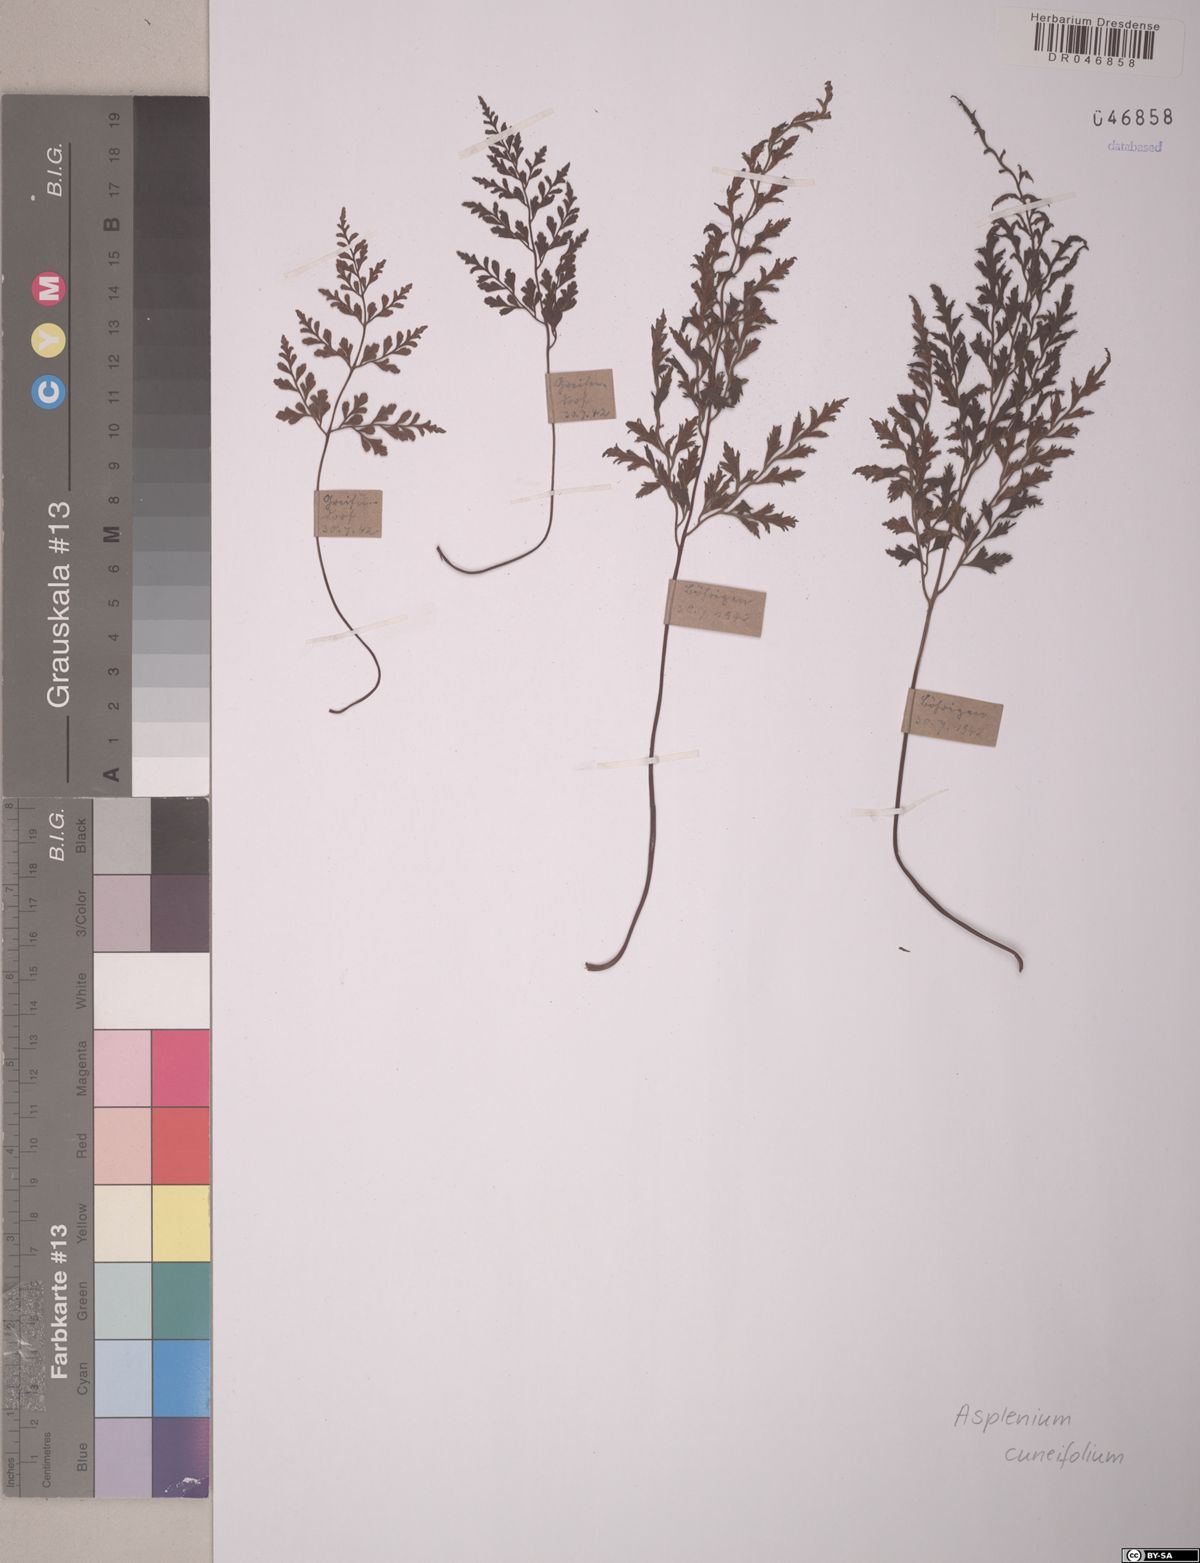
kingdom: Plantae
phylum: Tracheophyta
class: Polypodiopsida
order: Polypodiales
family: Aspleniaceae
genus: Asplenium
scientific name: Asplenium cuneifolium
